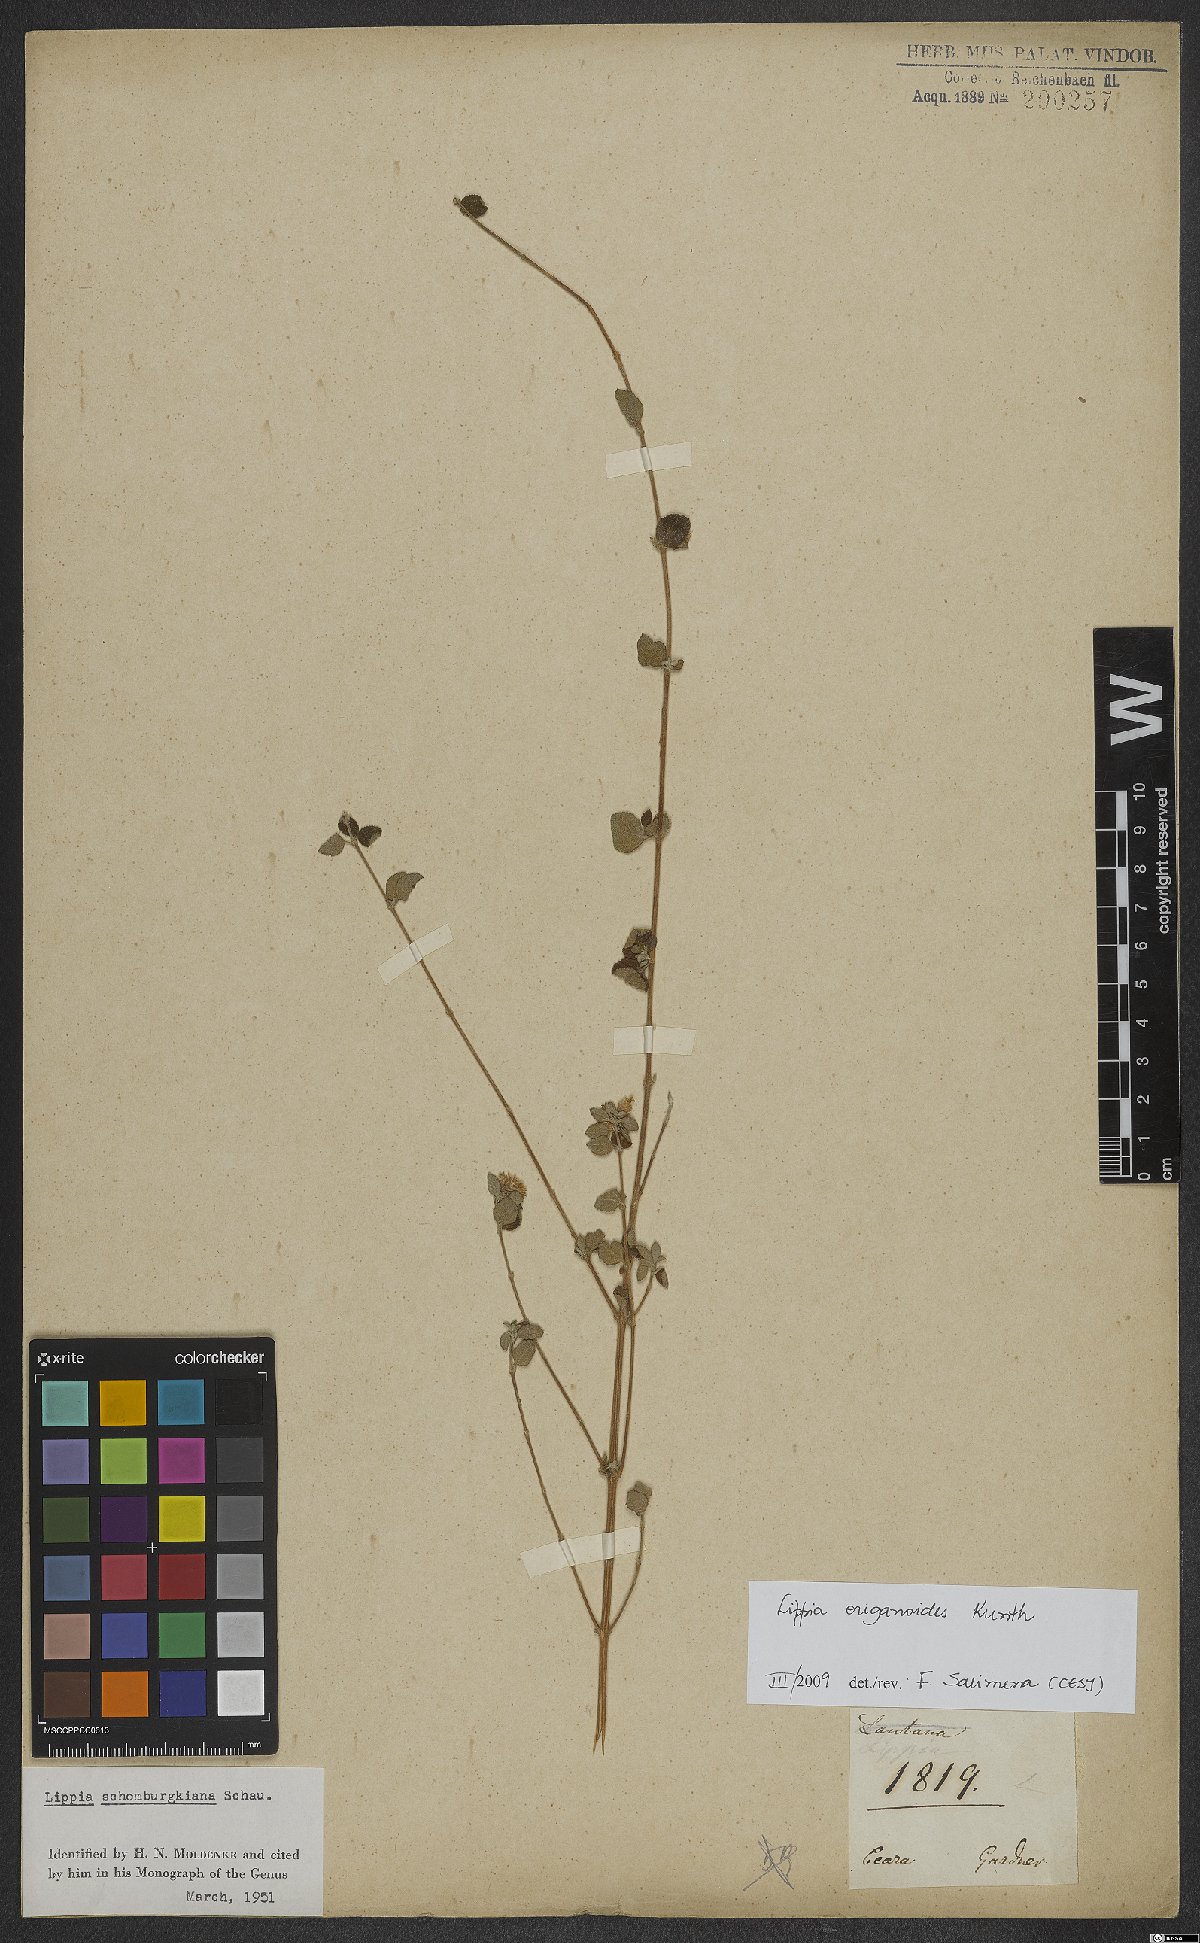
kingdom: Plantae
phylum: Tracheophyta
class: Magnoliopsida
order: Lamiales
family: Verbenaceae
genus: Lippia
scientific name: Lippia origanoides
